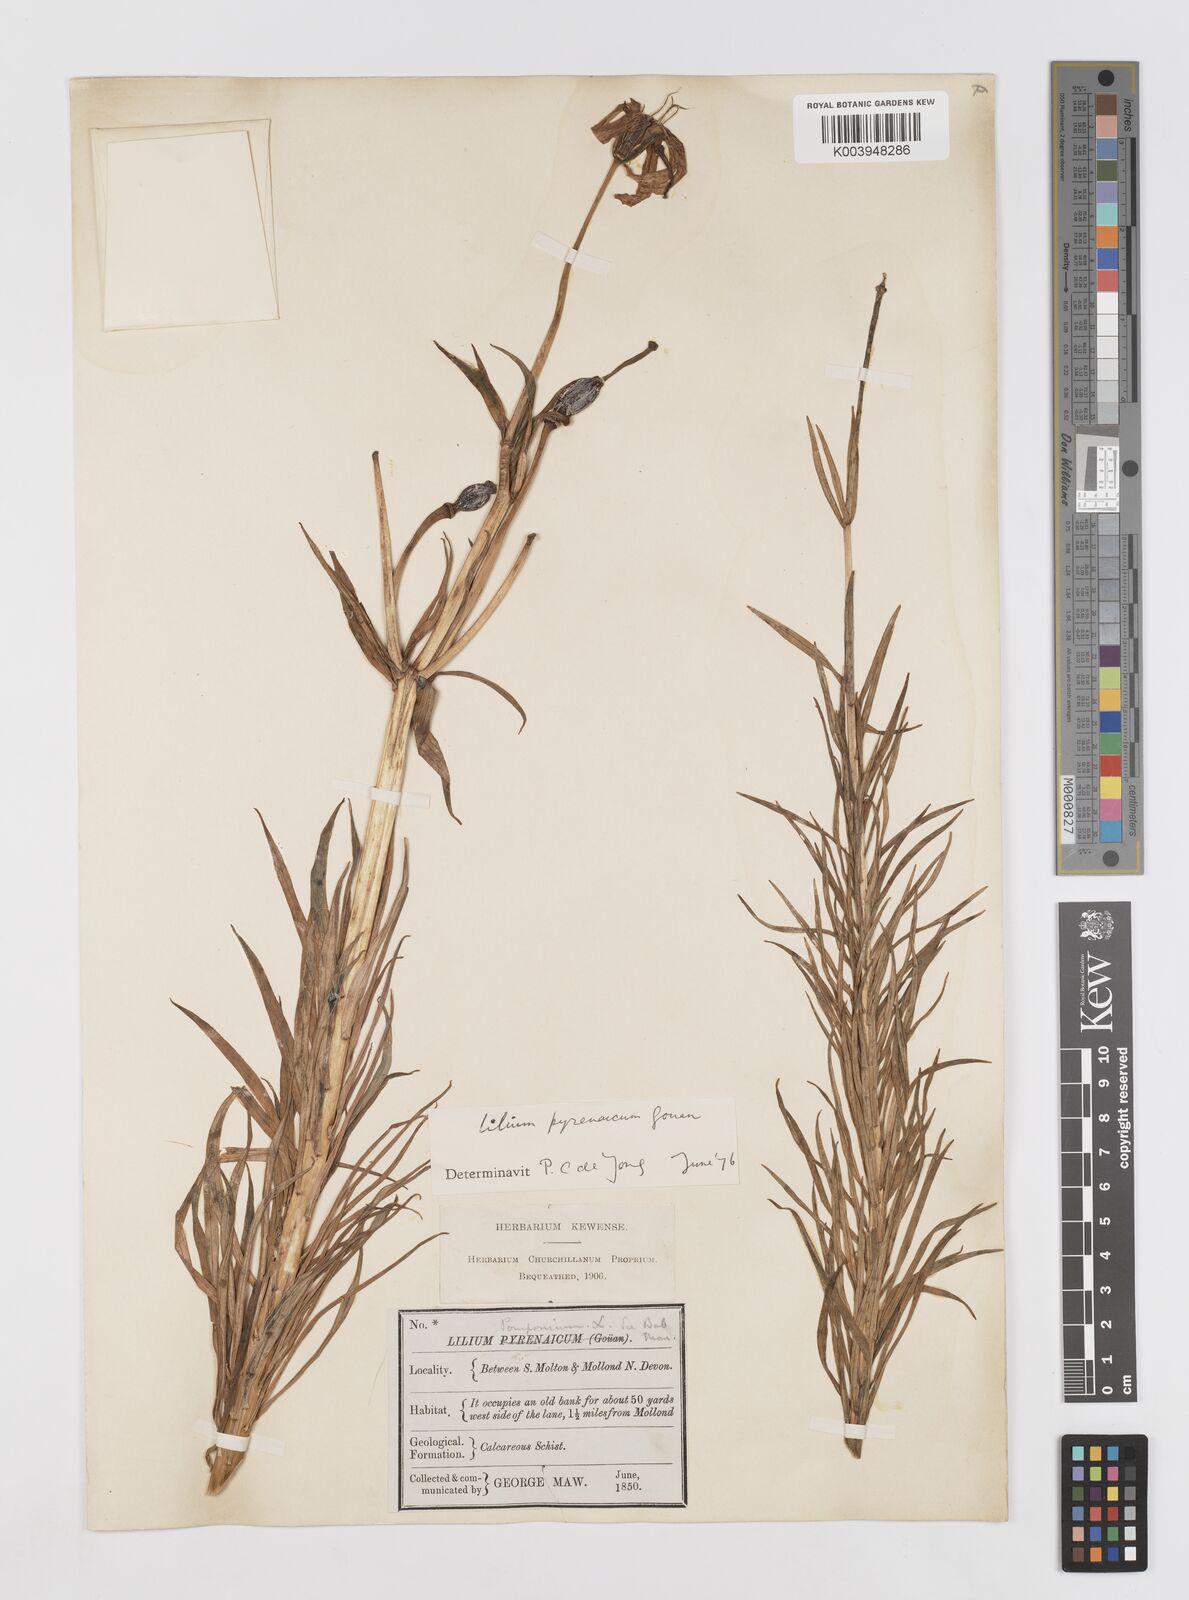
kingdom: Plantae
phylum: Tracheophyta
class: Liliopsida
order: Liliales
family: Liliaceae
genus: Lilium
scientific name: Lilium pyrenaicum
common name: Pyrenean lily
